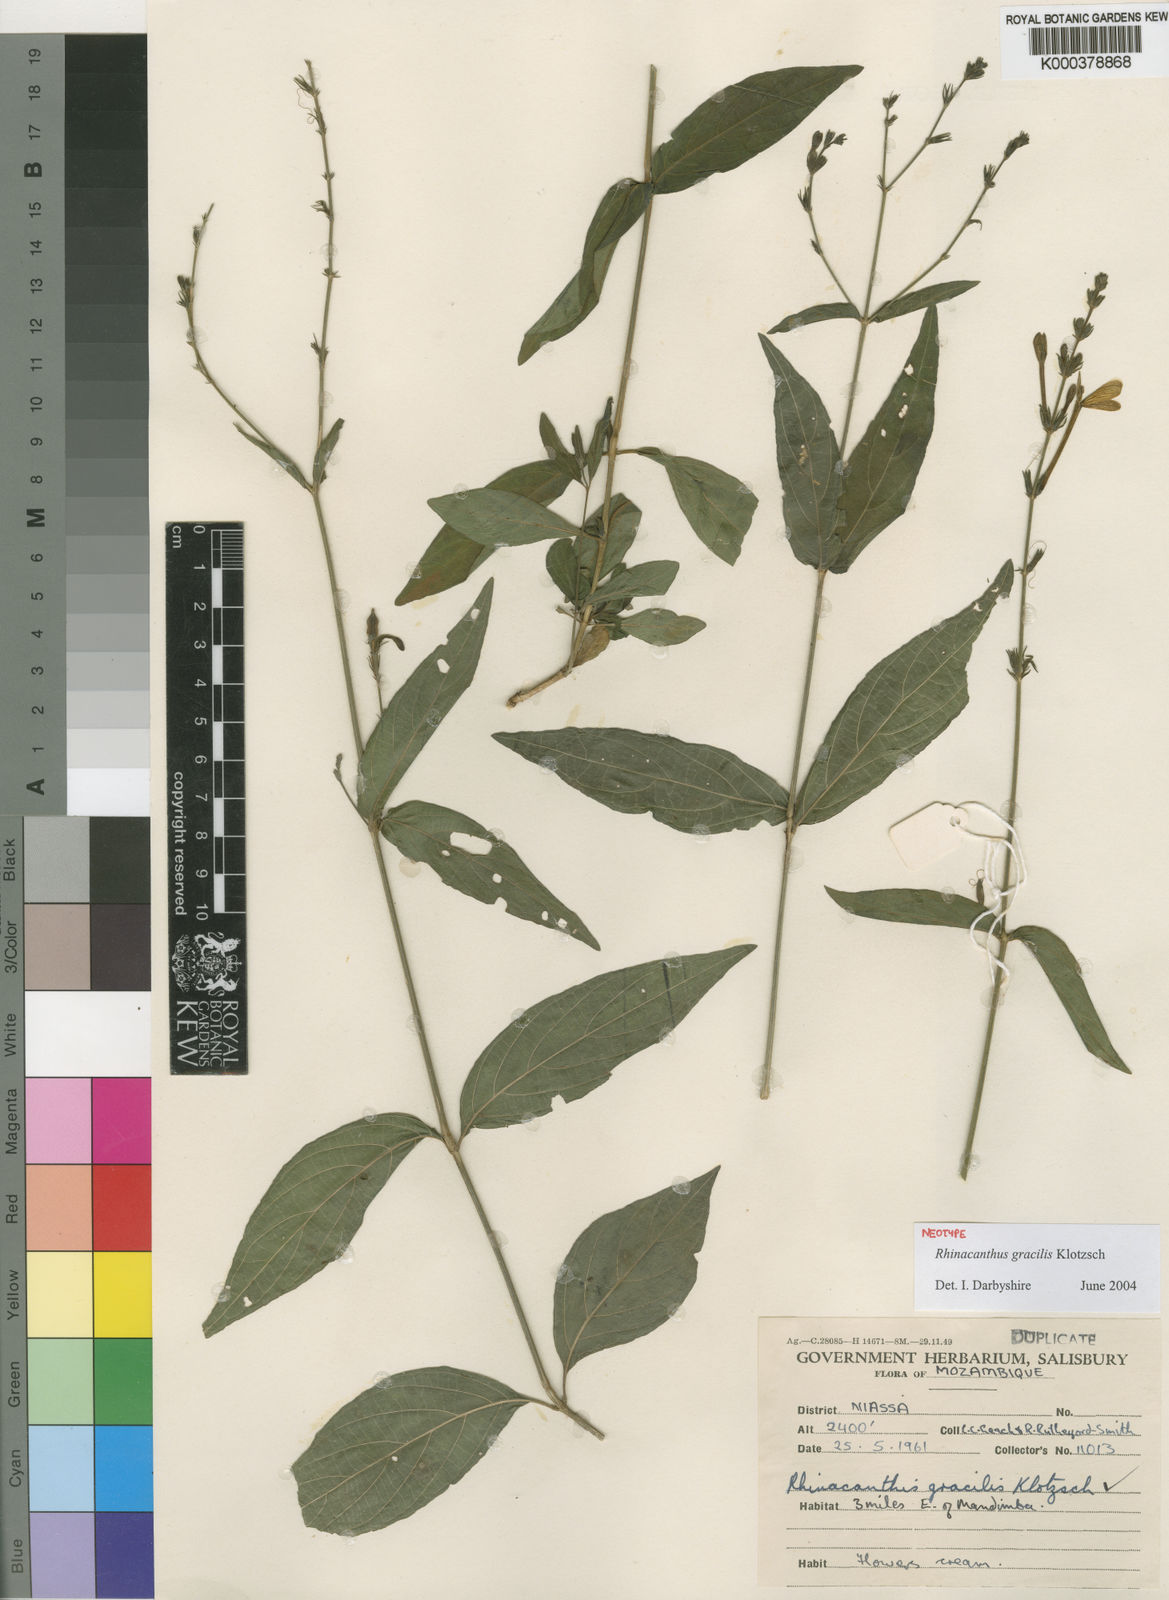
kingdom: Plantae
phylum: Tracheophyta
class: Magnoliopsida
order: Lamiales
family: Acanthaceae
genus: Rhinacanthus
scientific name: Rhinacanthus gracilis
